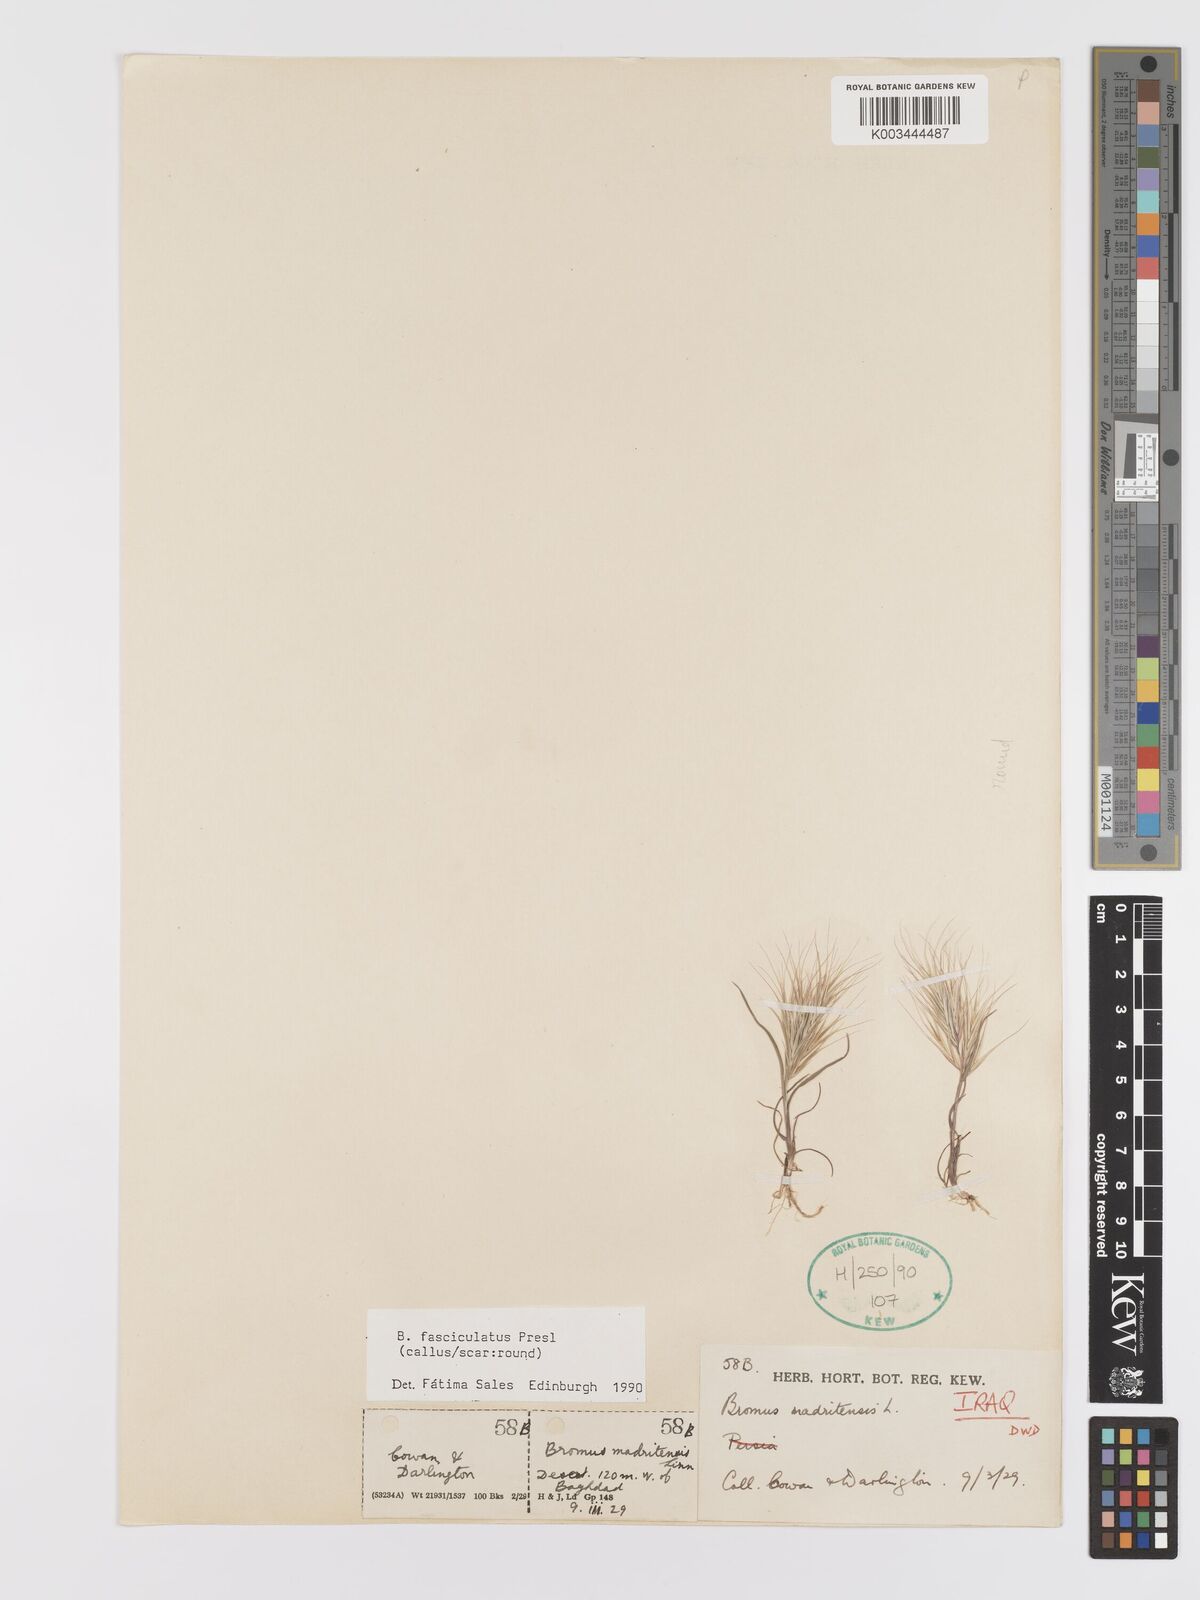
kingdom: Plantae
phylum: Tracheophyta
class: Liliopsida
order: Poales
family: Poaceae
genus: Bromus
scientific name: Bromus fasciculatus
